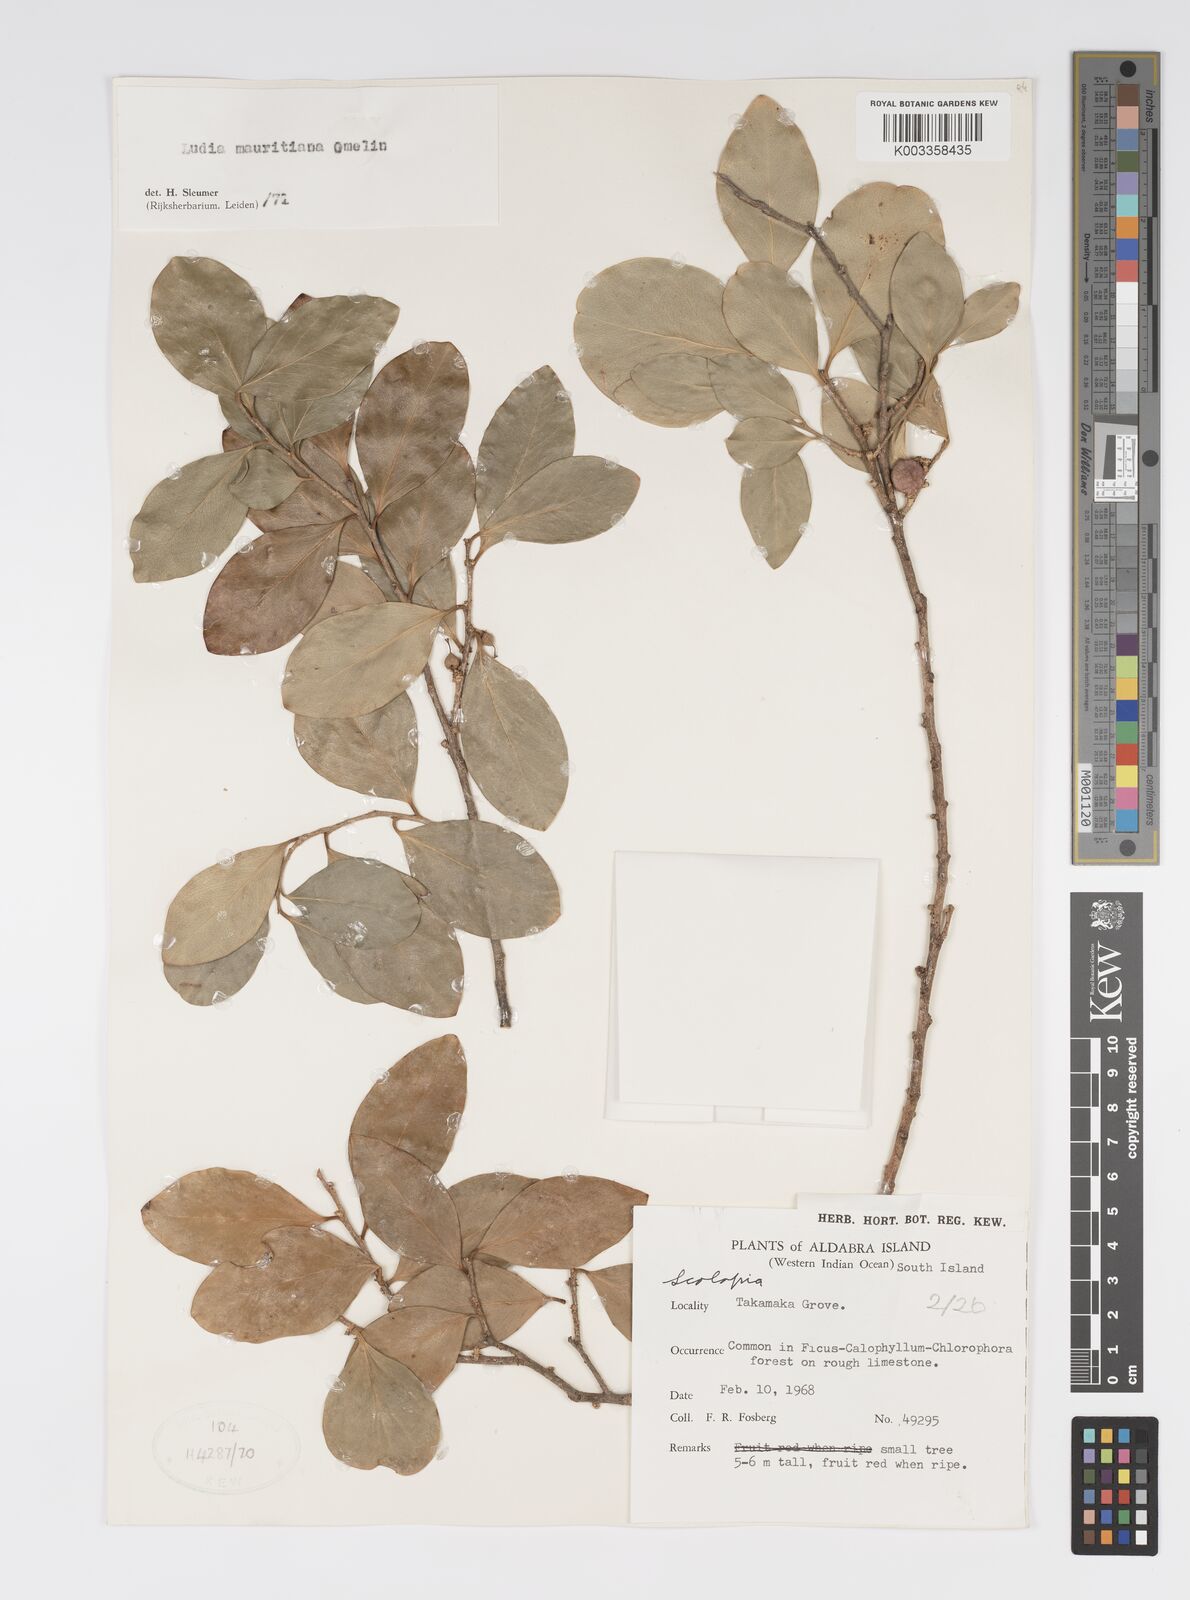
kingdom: Plantae
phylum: Tracheophyta
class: Magnoliopsida
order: Malpighiales
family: Salicaceae
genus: Ludia
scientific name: Ludia mauritiana
